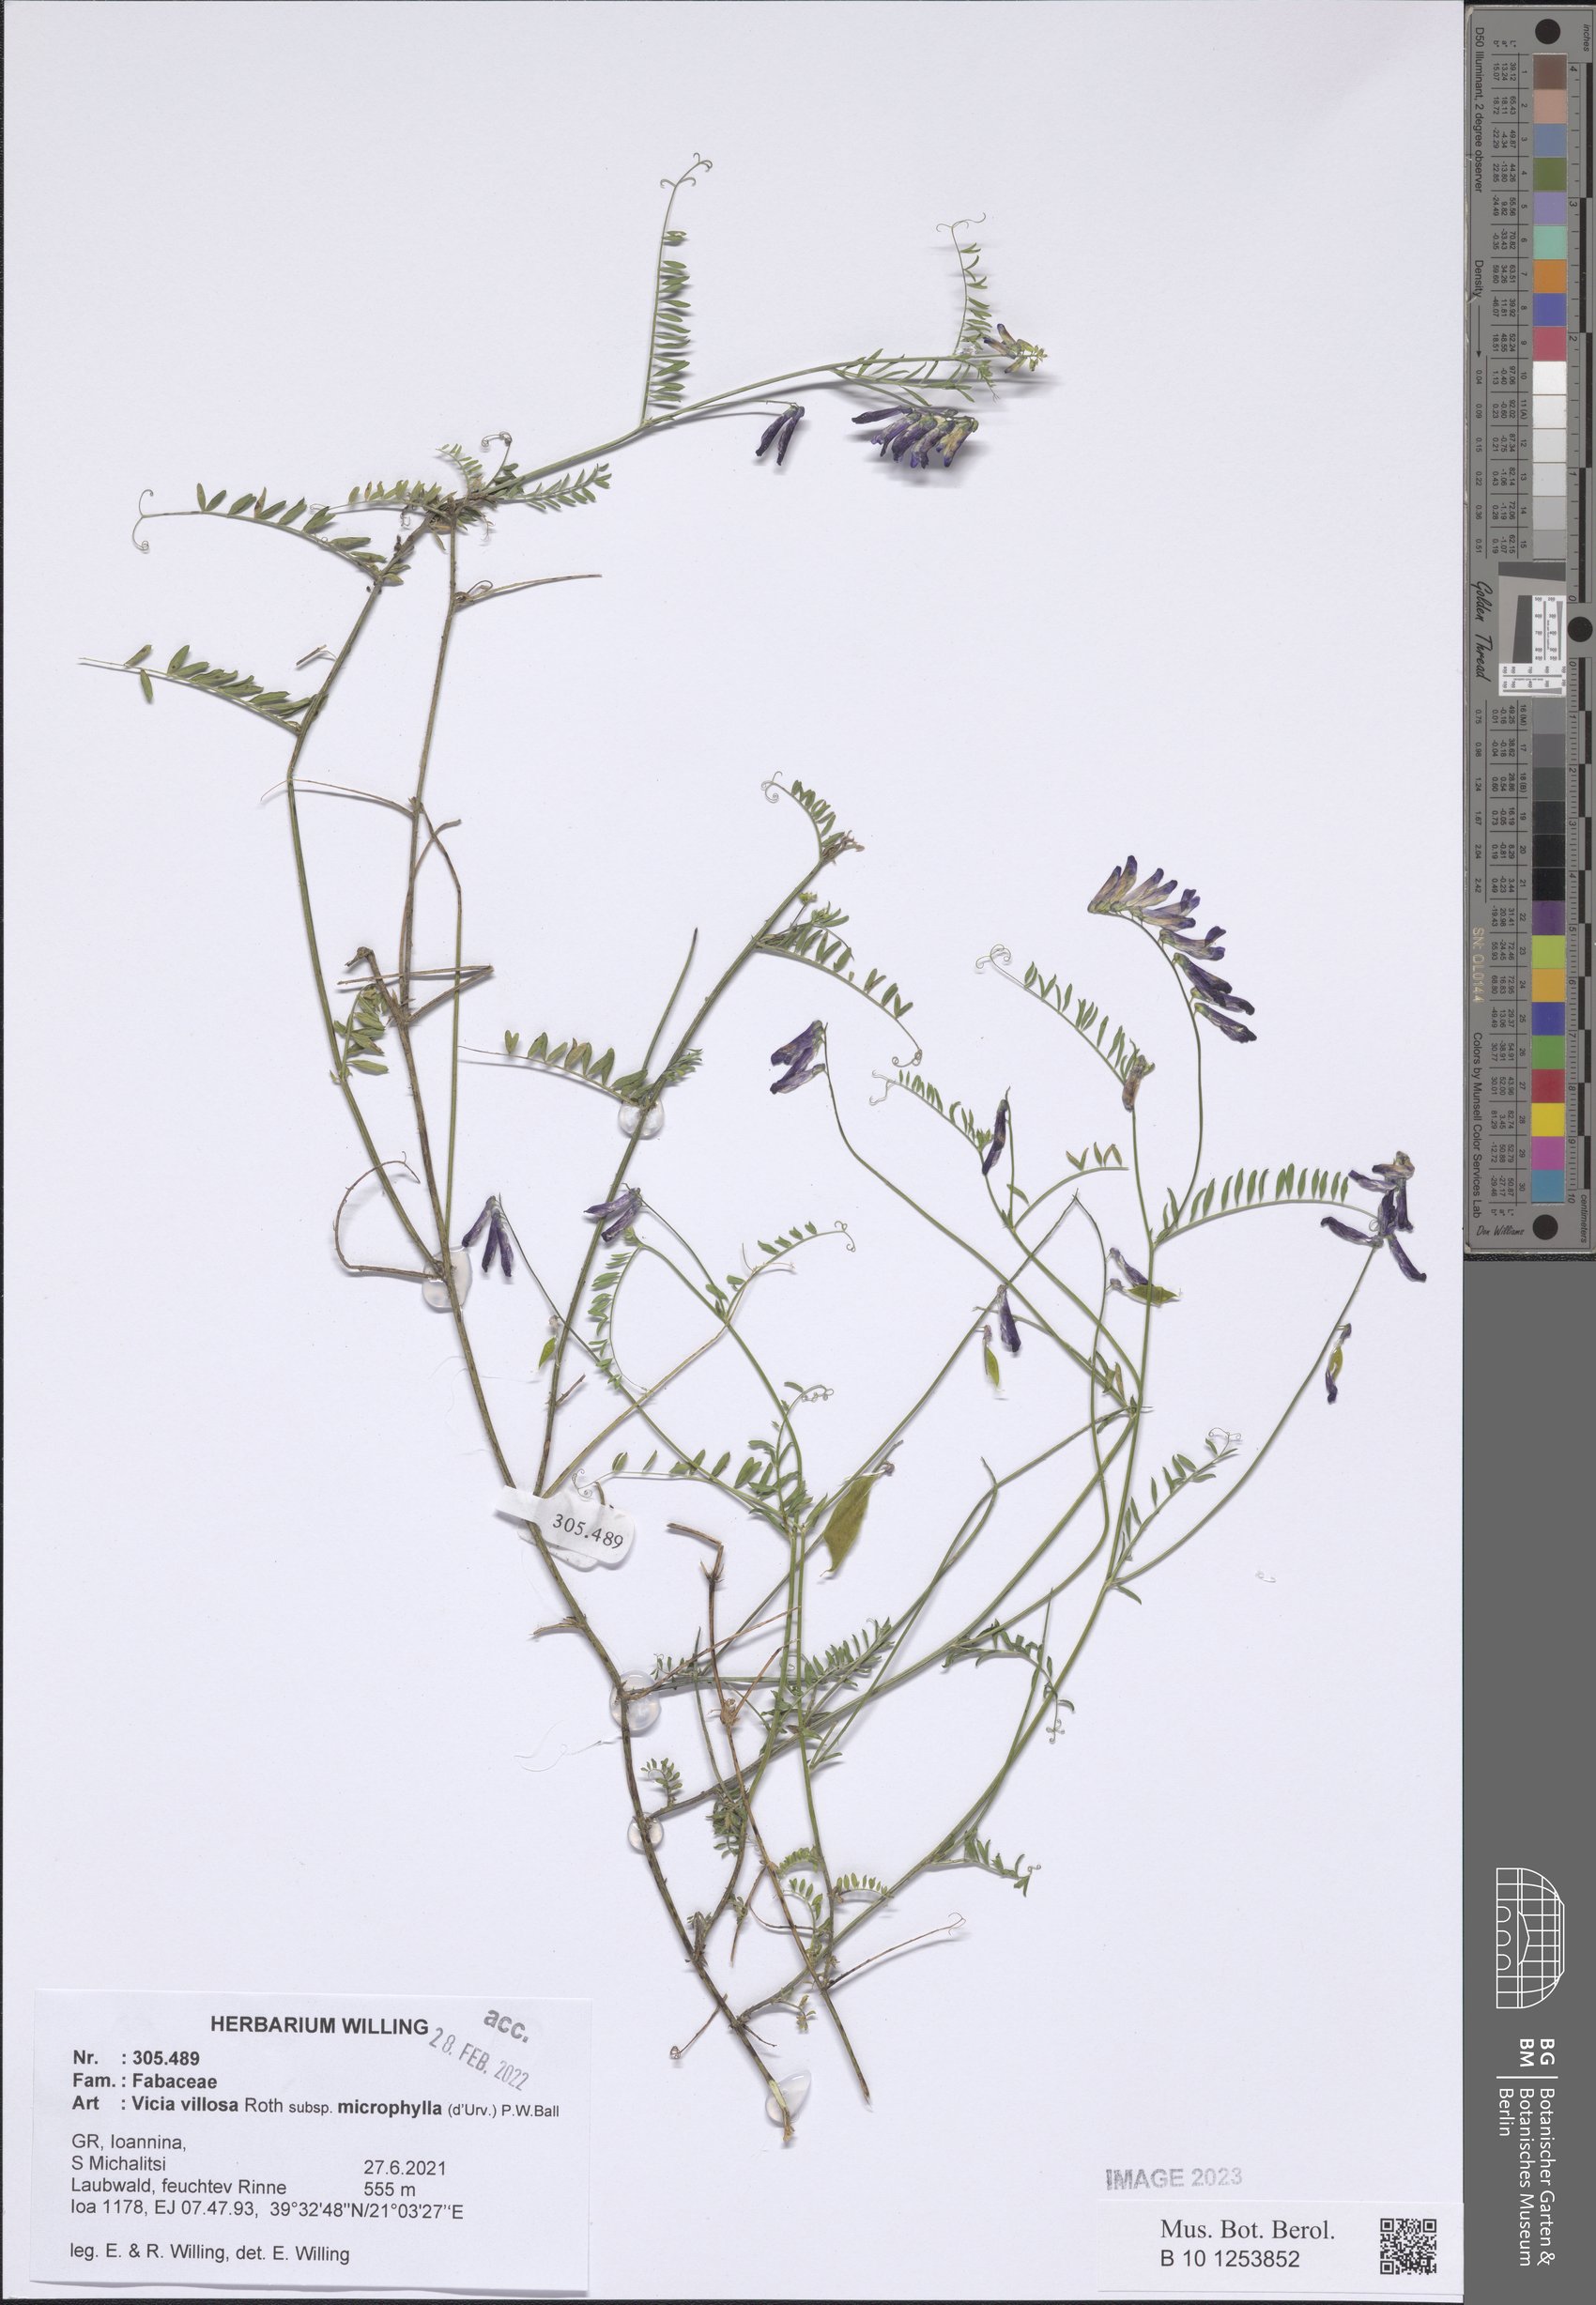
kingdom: Plantae
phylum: Tracheophyta
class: Magnoliopsida
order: Fabales
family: Fabaceae
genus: Vicia
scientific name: Vicia villosa
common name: Fodder vetch
